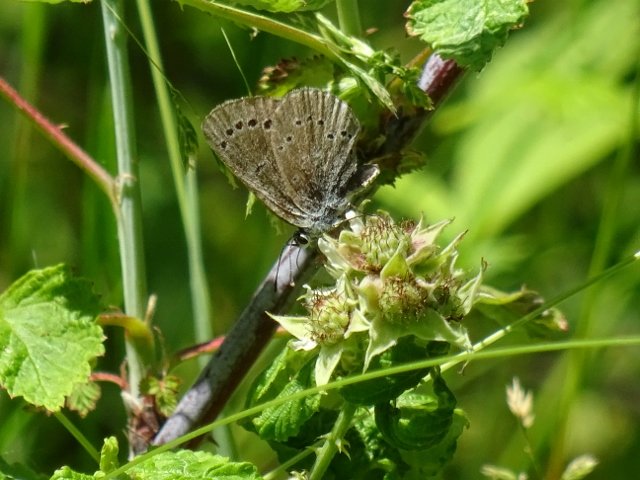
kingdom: Animalia
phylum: Arthropoda
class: Insecta
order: Lepidoptera
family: Lycaenidae
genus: Glaucopsyche
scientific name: Glaucopsyche lygdamus
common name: Silvery Blue
